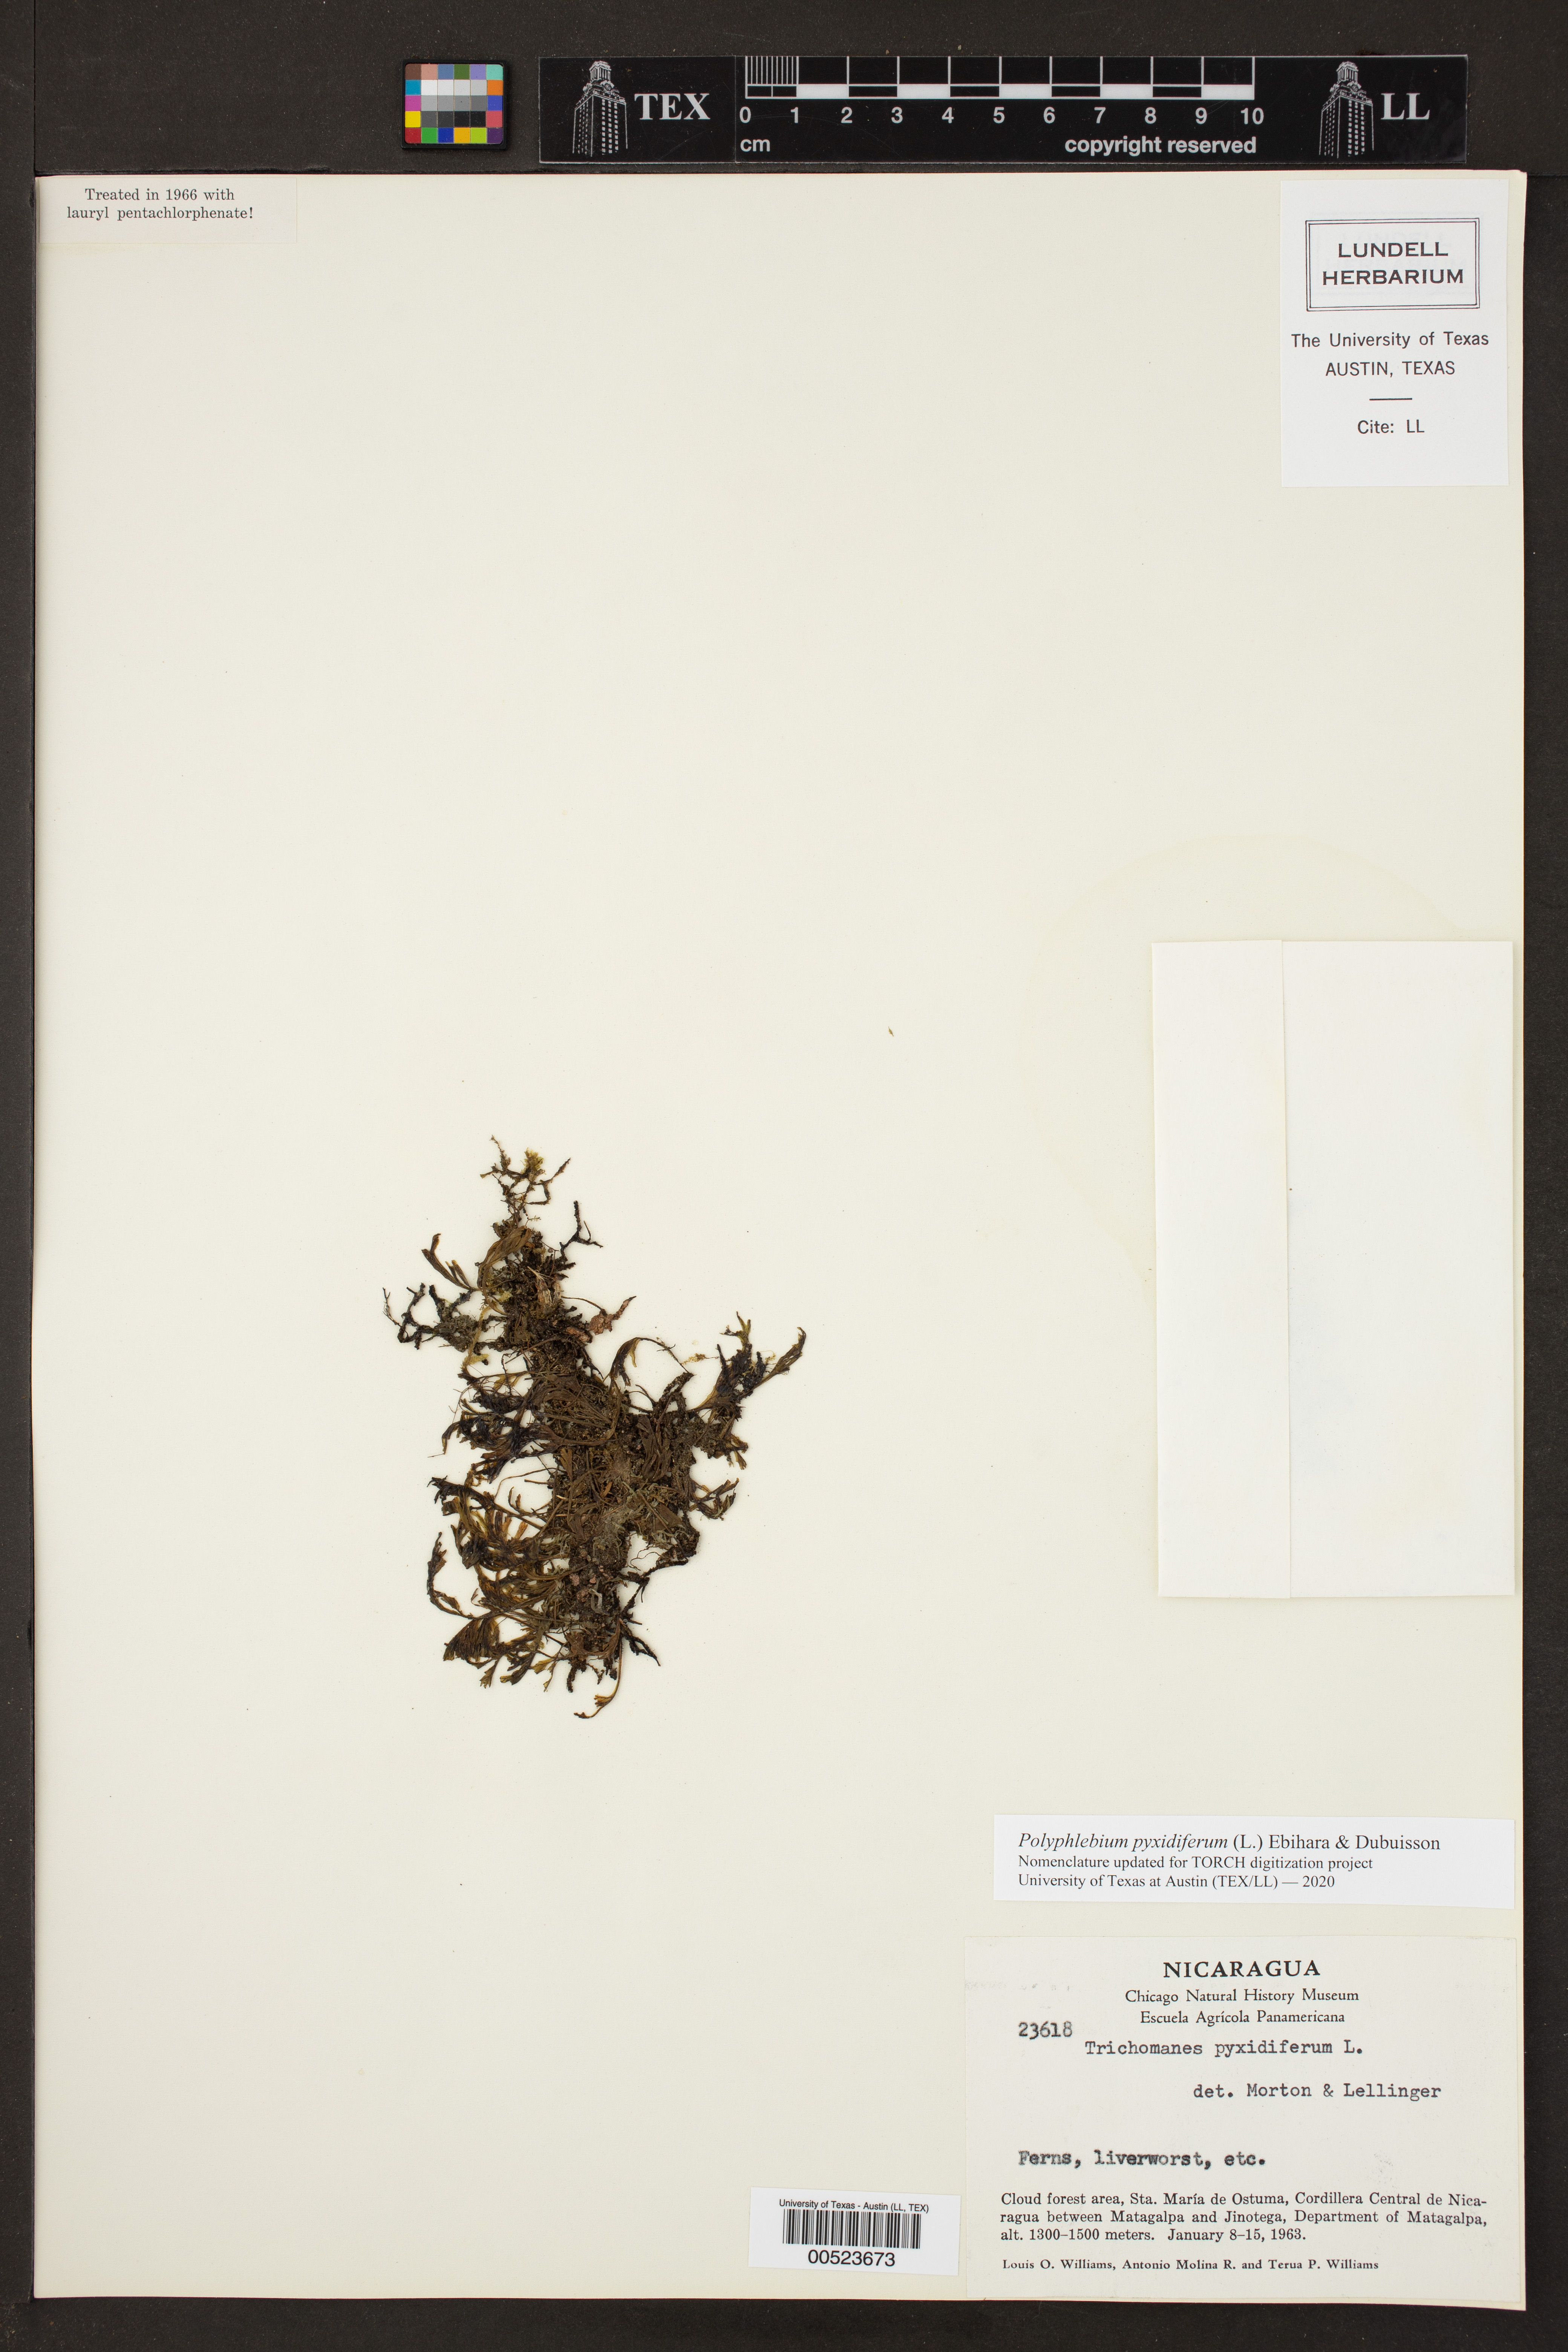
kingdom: Plantae
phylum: Tracheophyta
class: Polypodiopsida
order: Hymenophyllales
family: Hymenophyllaceae
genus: Polyphlebium
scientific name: Polyphlebium pyxidiferum
